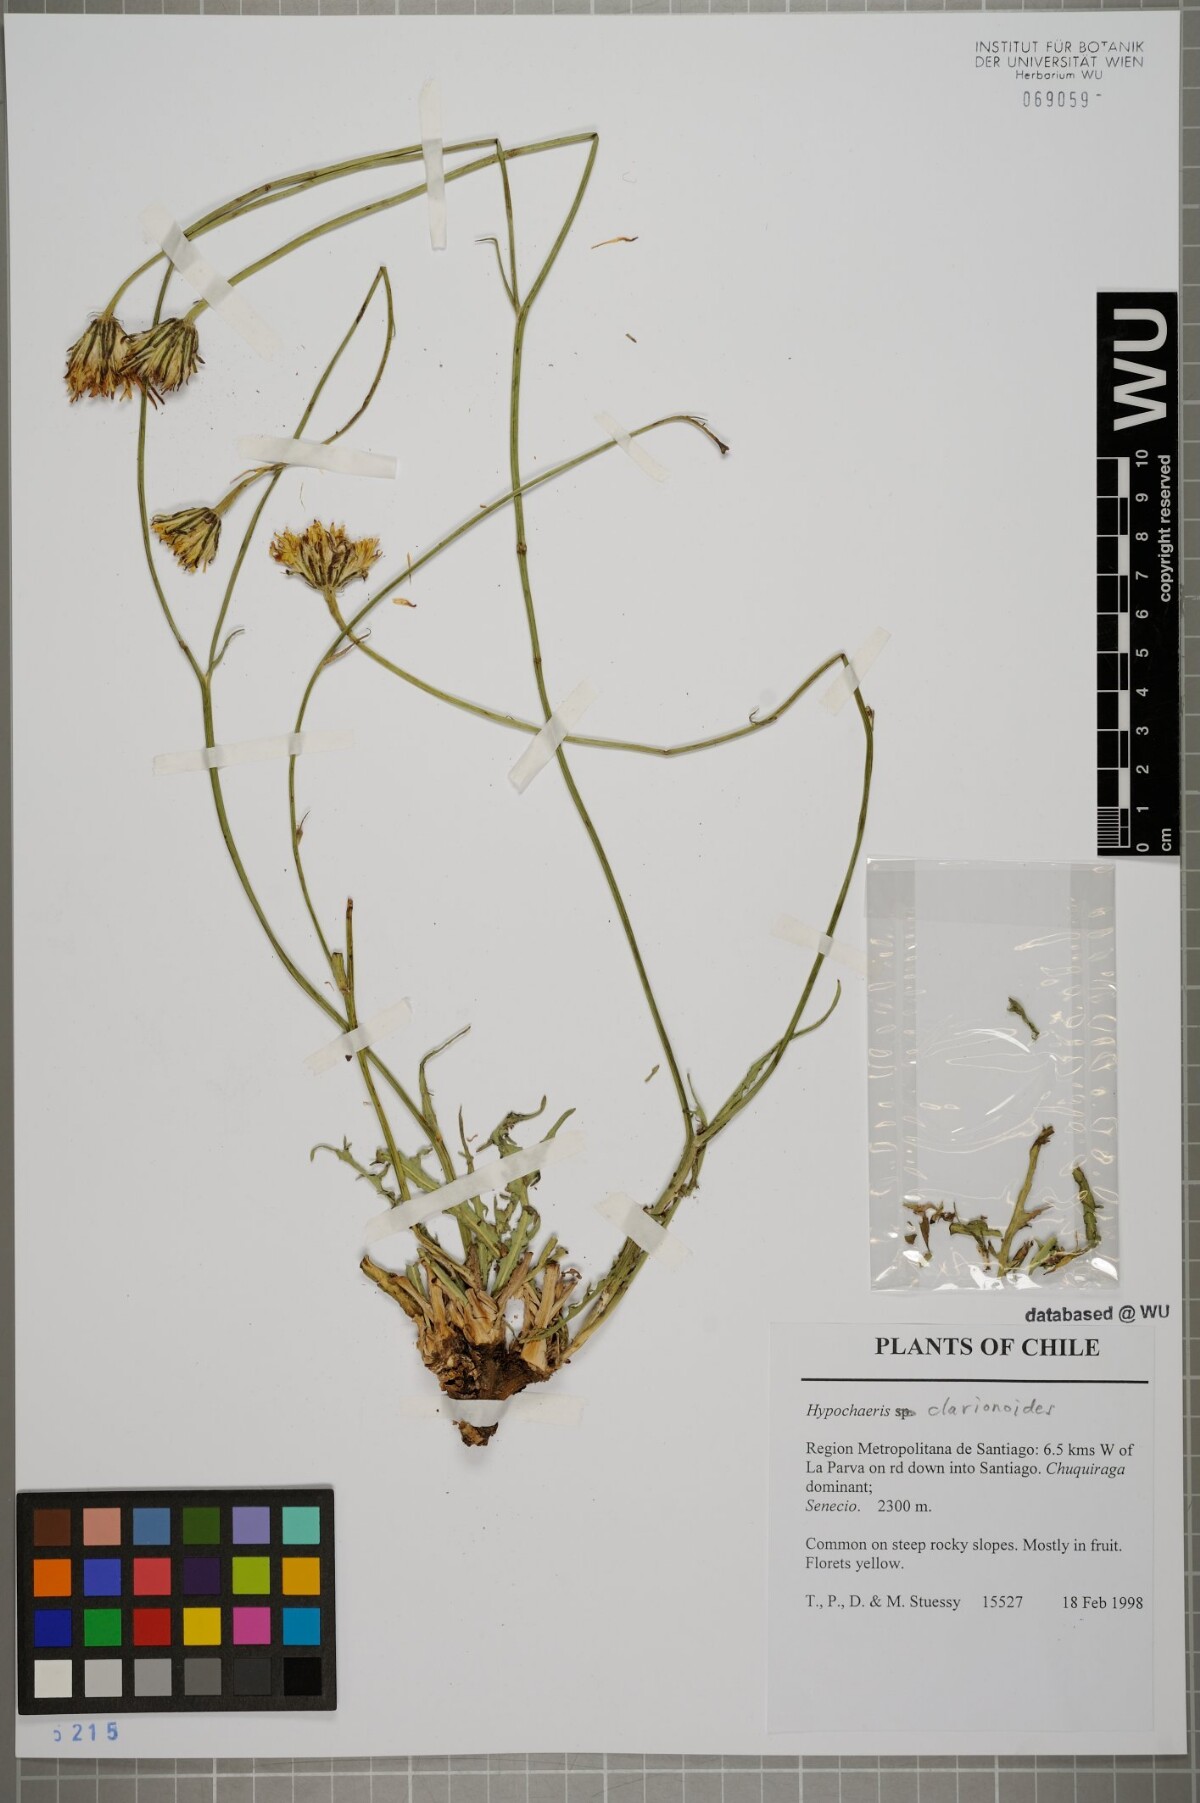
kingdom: Plantae
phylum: Tracheophyta
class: Magnoliopsida
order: Asterales
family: Asteraceae
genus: Hypochaeris
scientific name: Hypochaeris clarionoides
